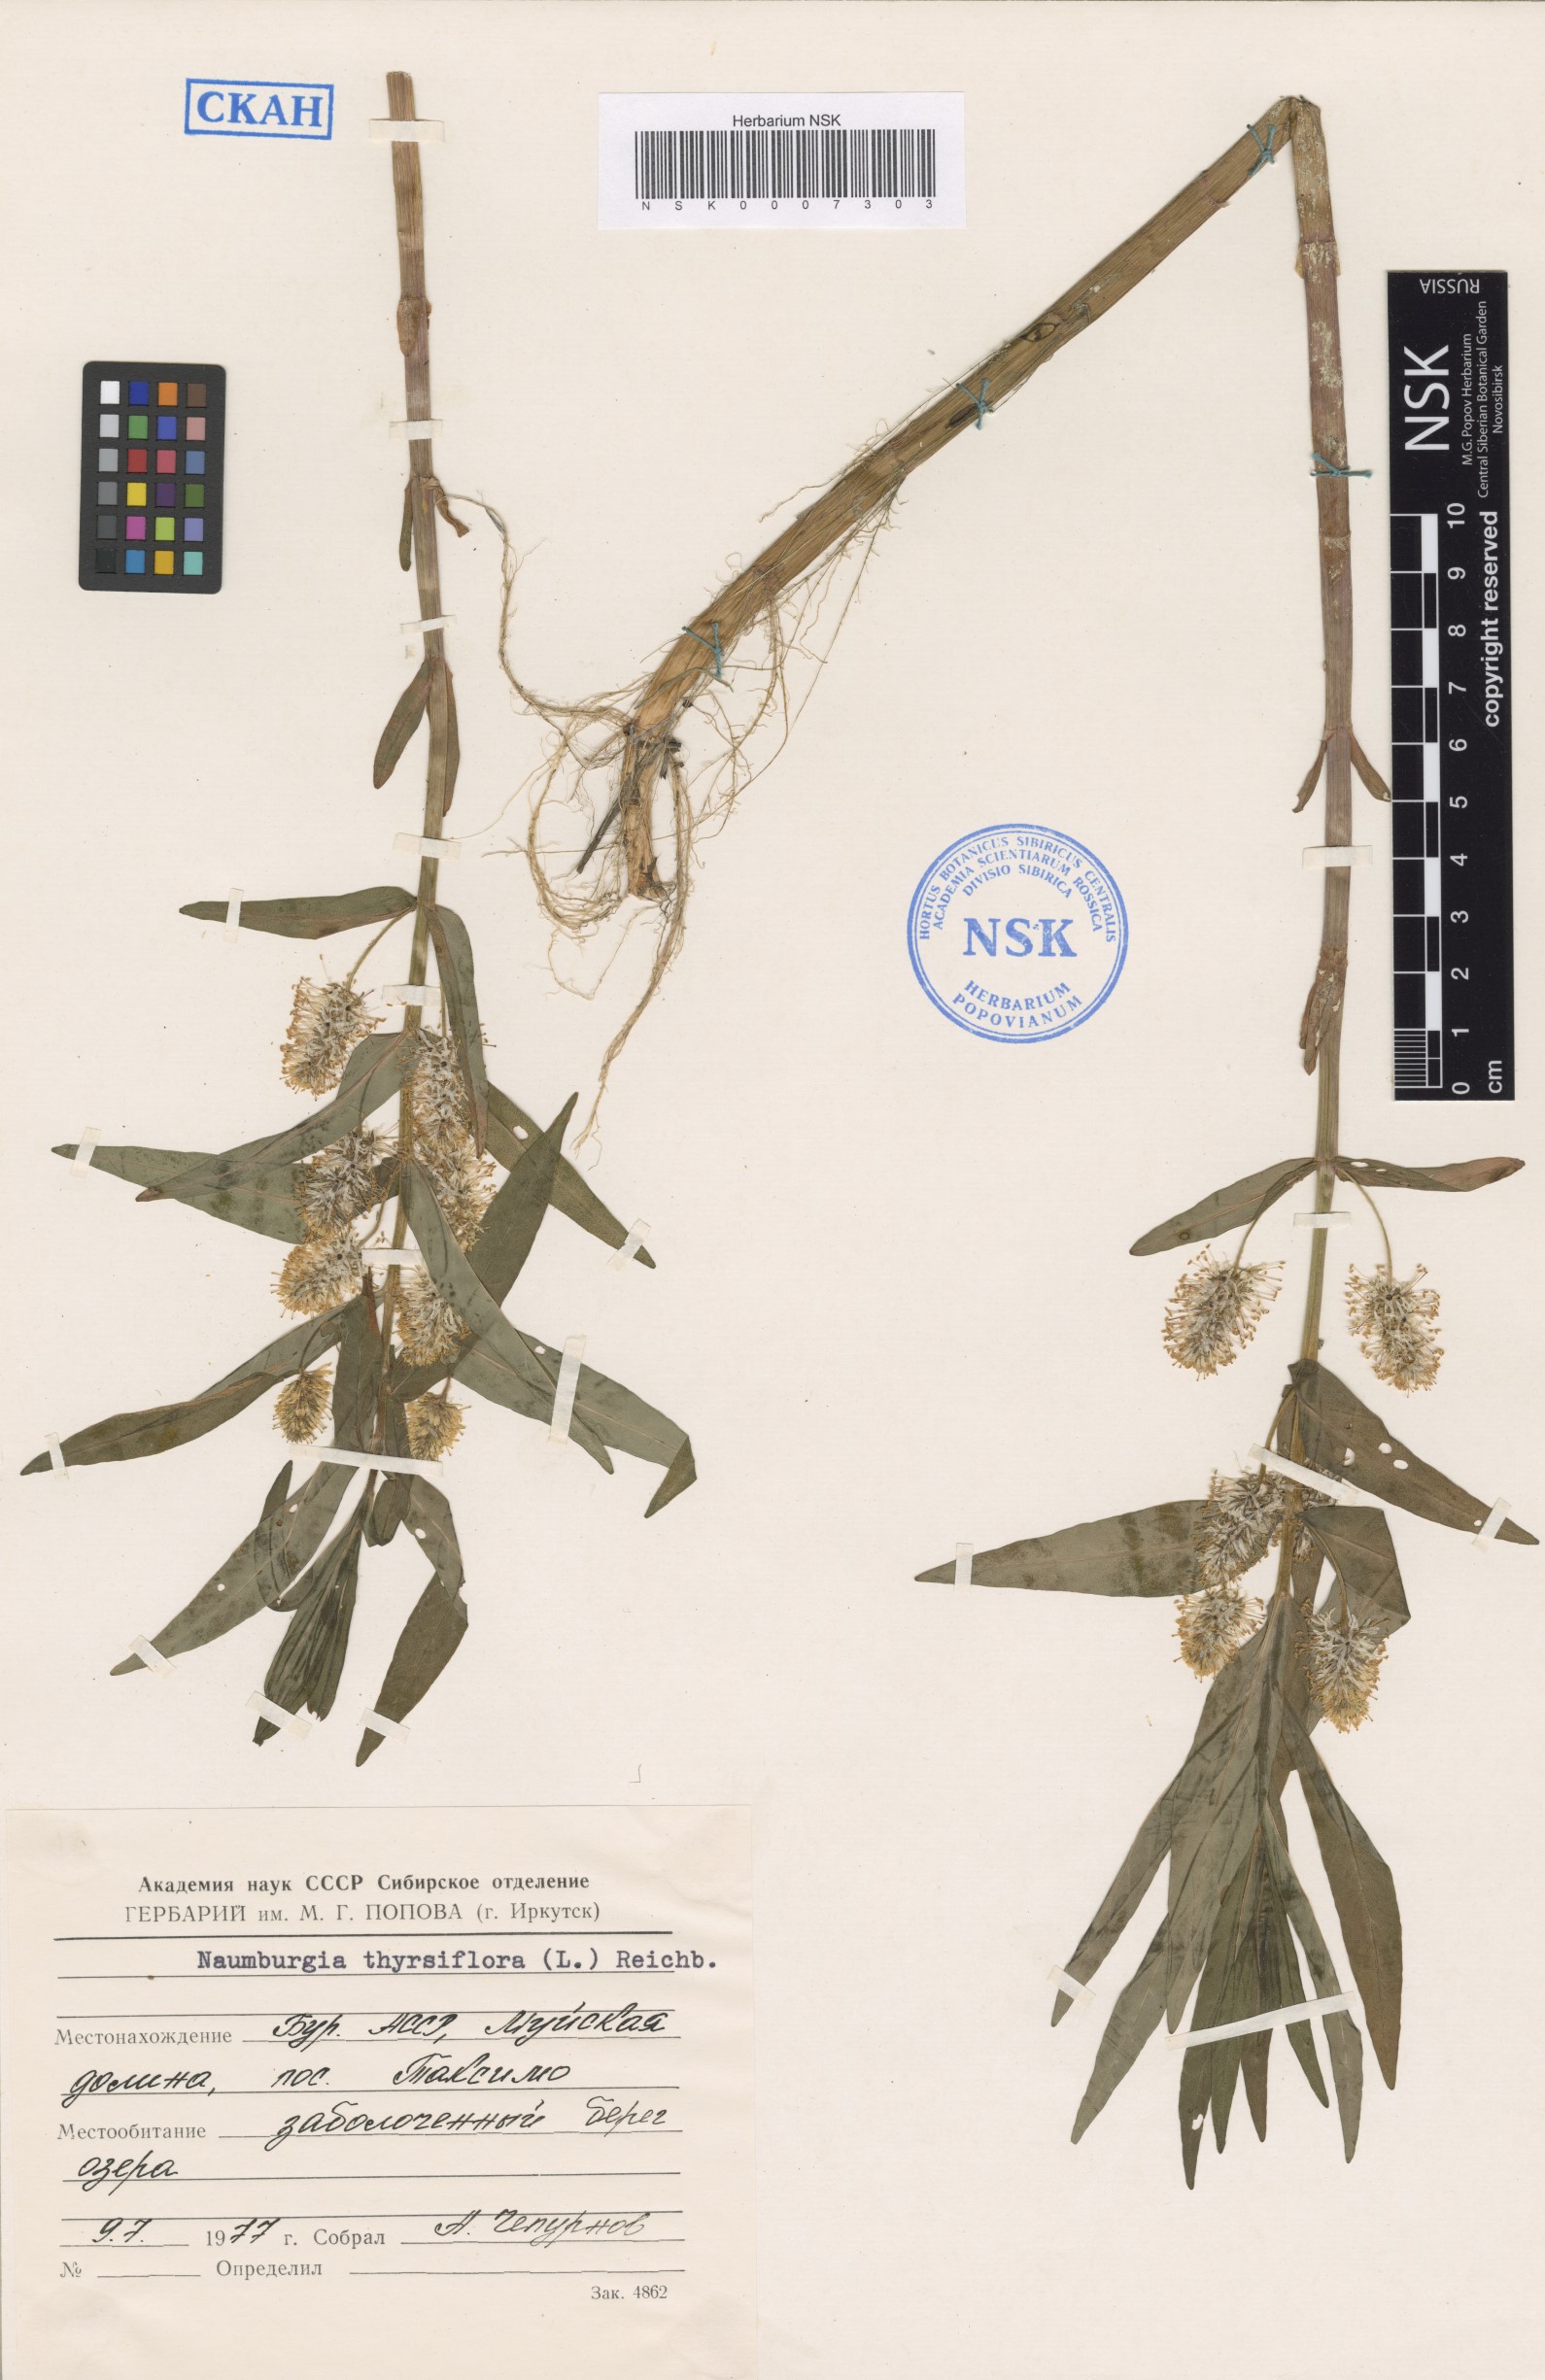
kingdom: Plantae
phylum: Tracheophyta
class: Magnoliopsida
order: Ericales
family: Primulaceae
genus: Lysimachia
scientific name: Lysimachia thyrsiflora
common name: Tufted loosestrife
